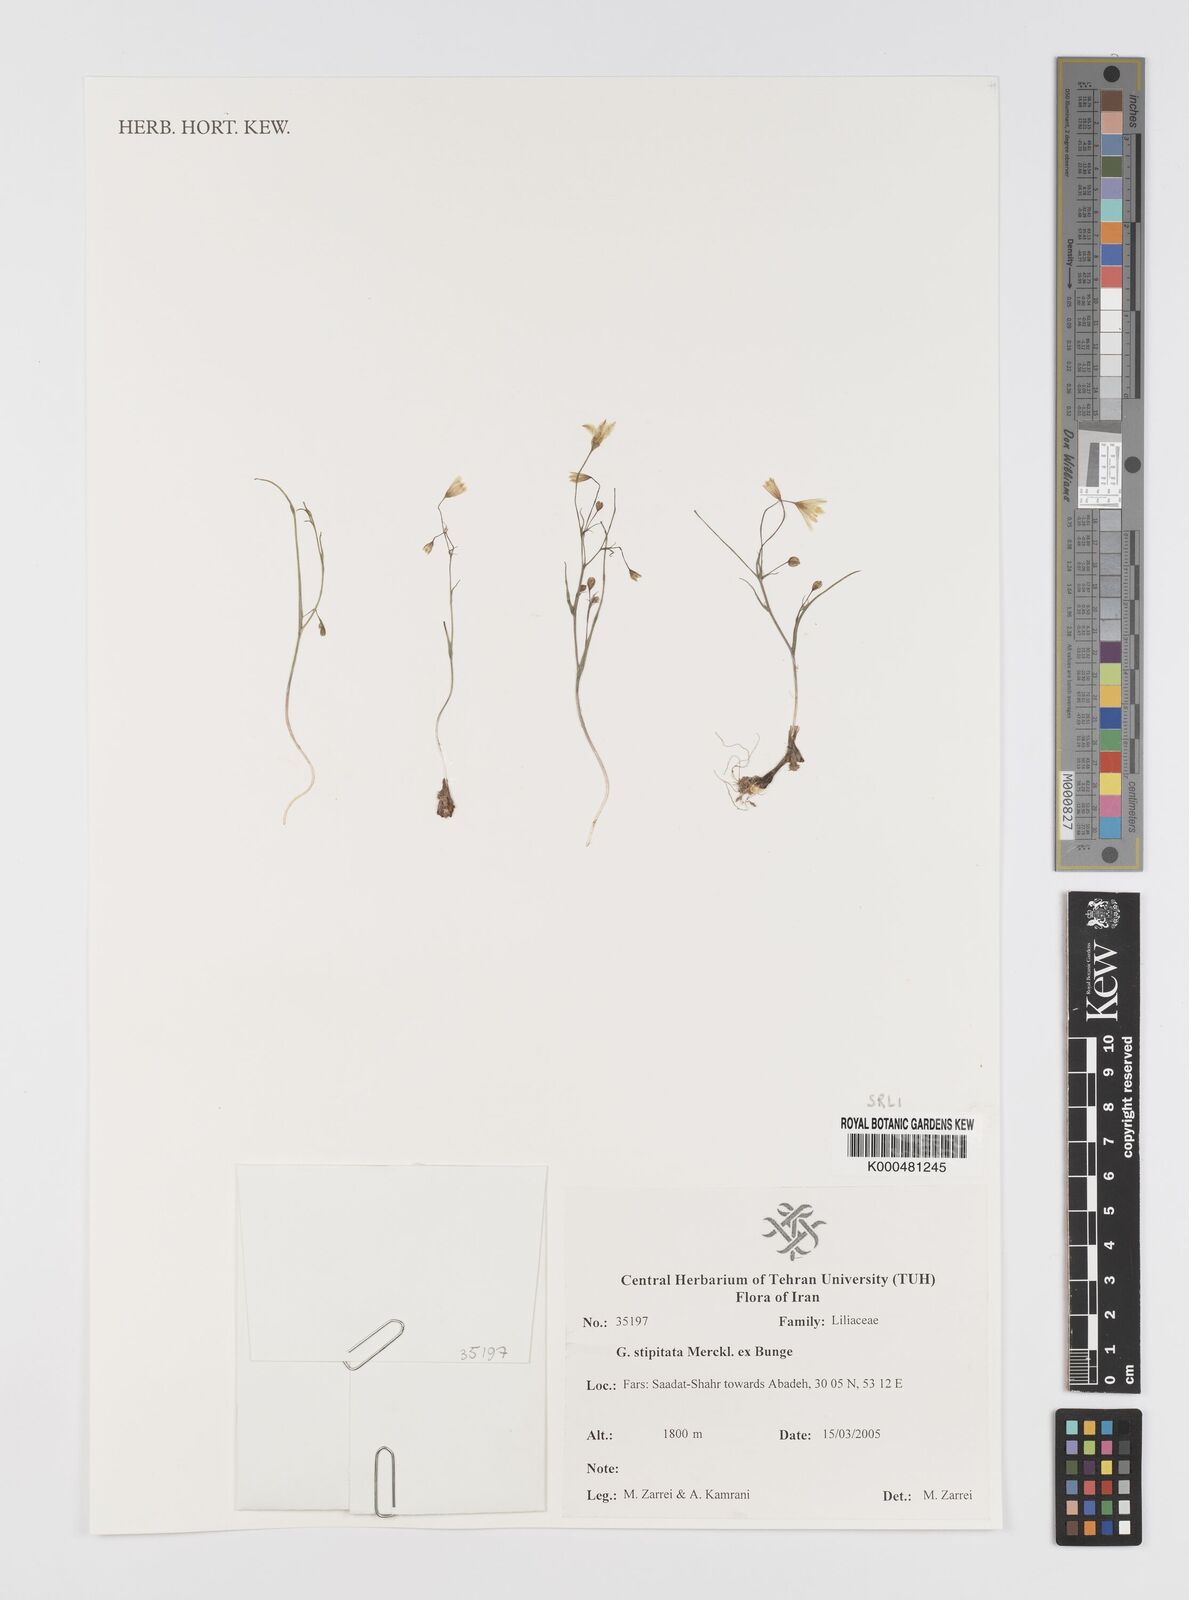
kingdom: Plantae
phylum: Tracheophyta
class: Liliopsida
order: Liliales
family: Liliaceae
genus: Gagea
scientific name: Gagea kunawurensis
